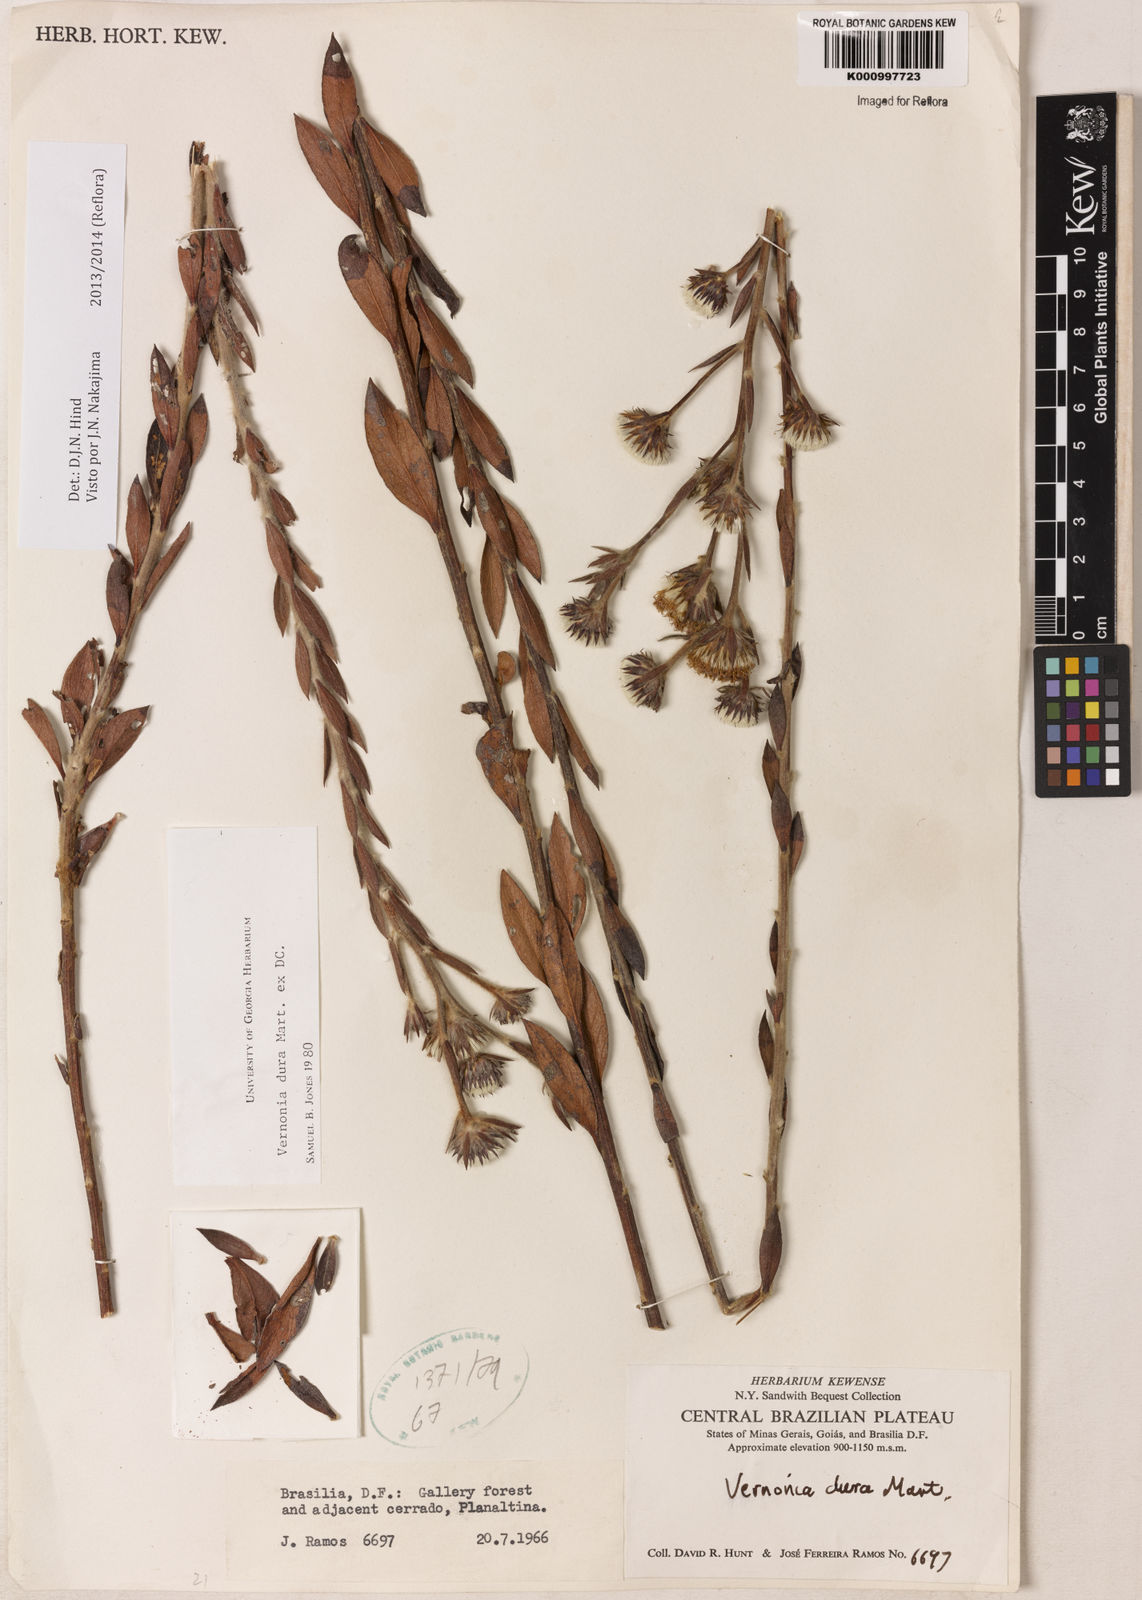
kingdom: Plantae
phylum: Tracheophyta
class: Magnoliopsida
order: Asterales
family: Asteraceae
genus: Lessingianthus
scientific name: Lessingianthus durus
